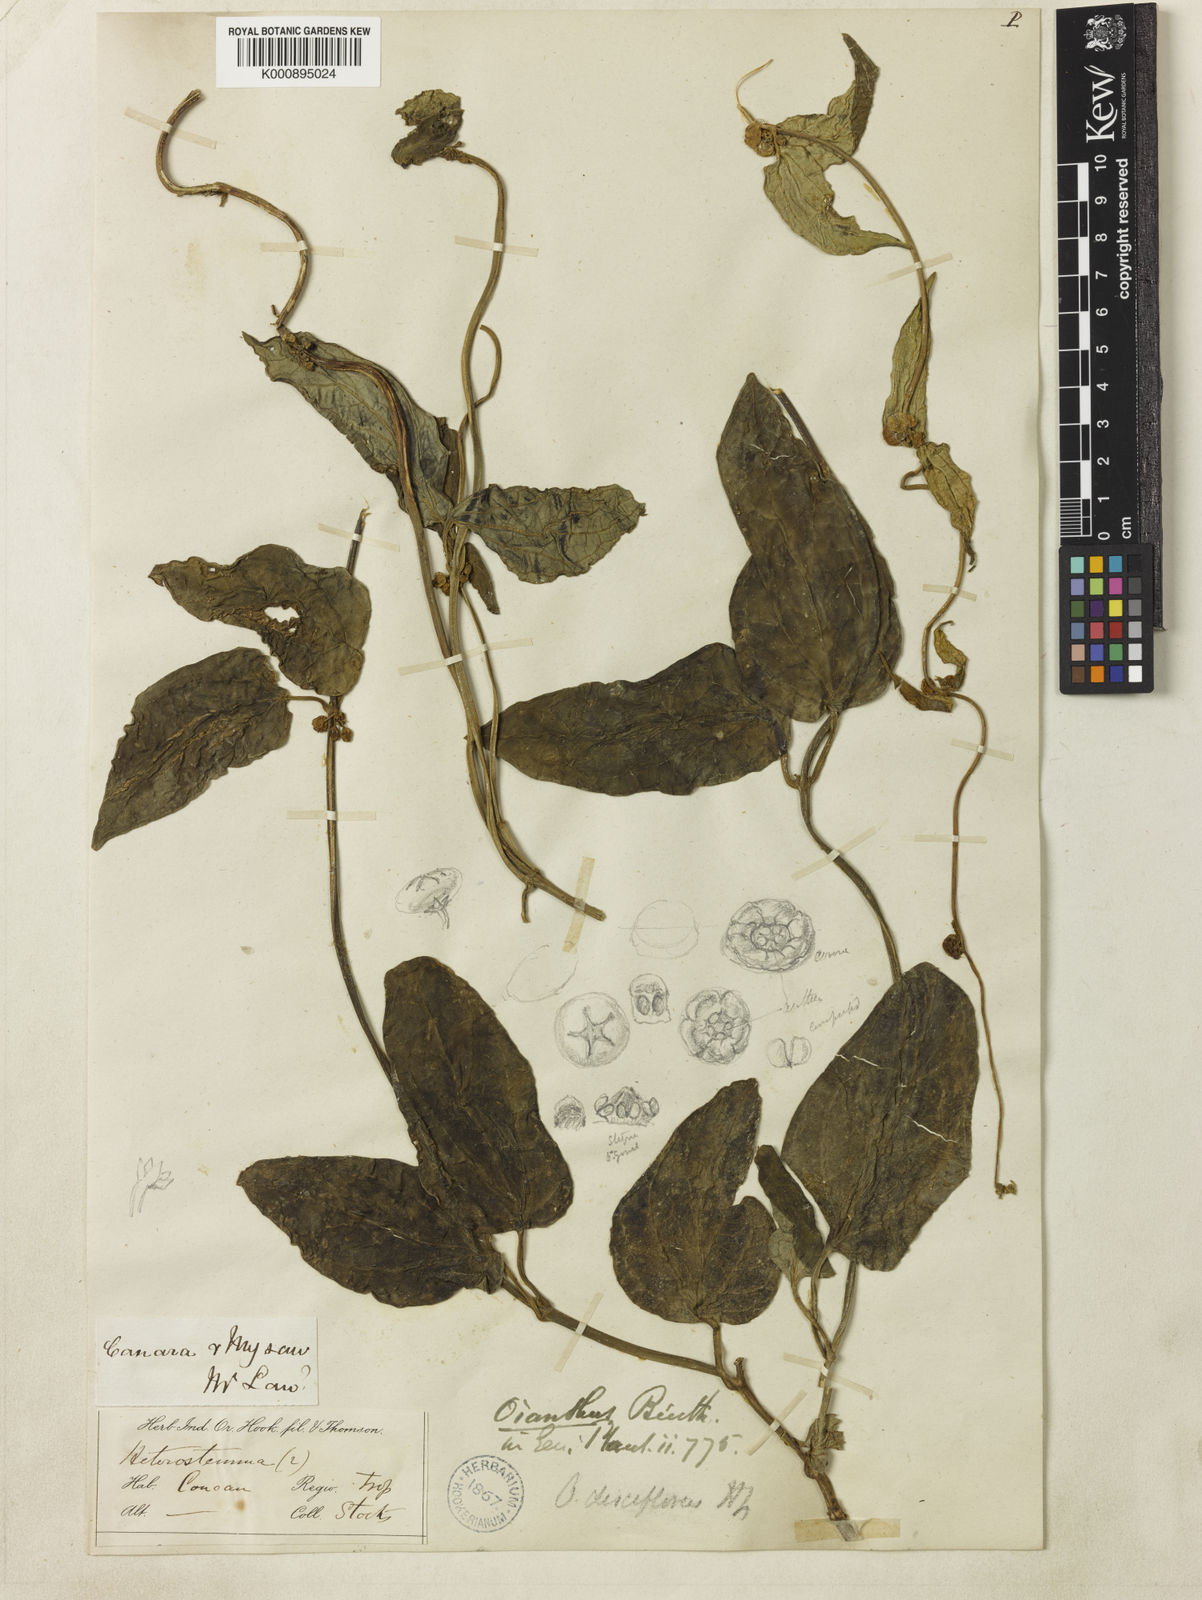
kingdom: Plantae
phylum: Tracheophyta
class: Magnoliopsida
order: Gentianales
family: Apocynaceae
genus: Heterostemma
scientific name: Heterostemma disciflorum
